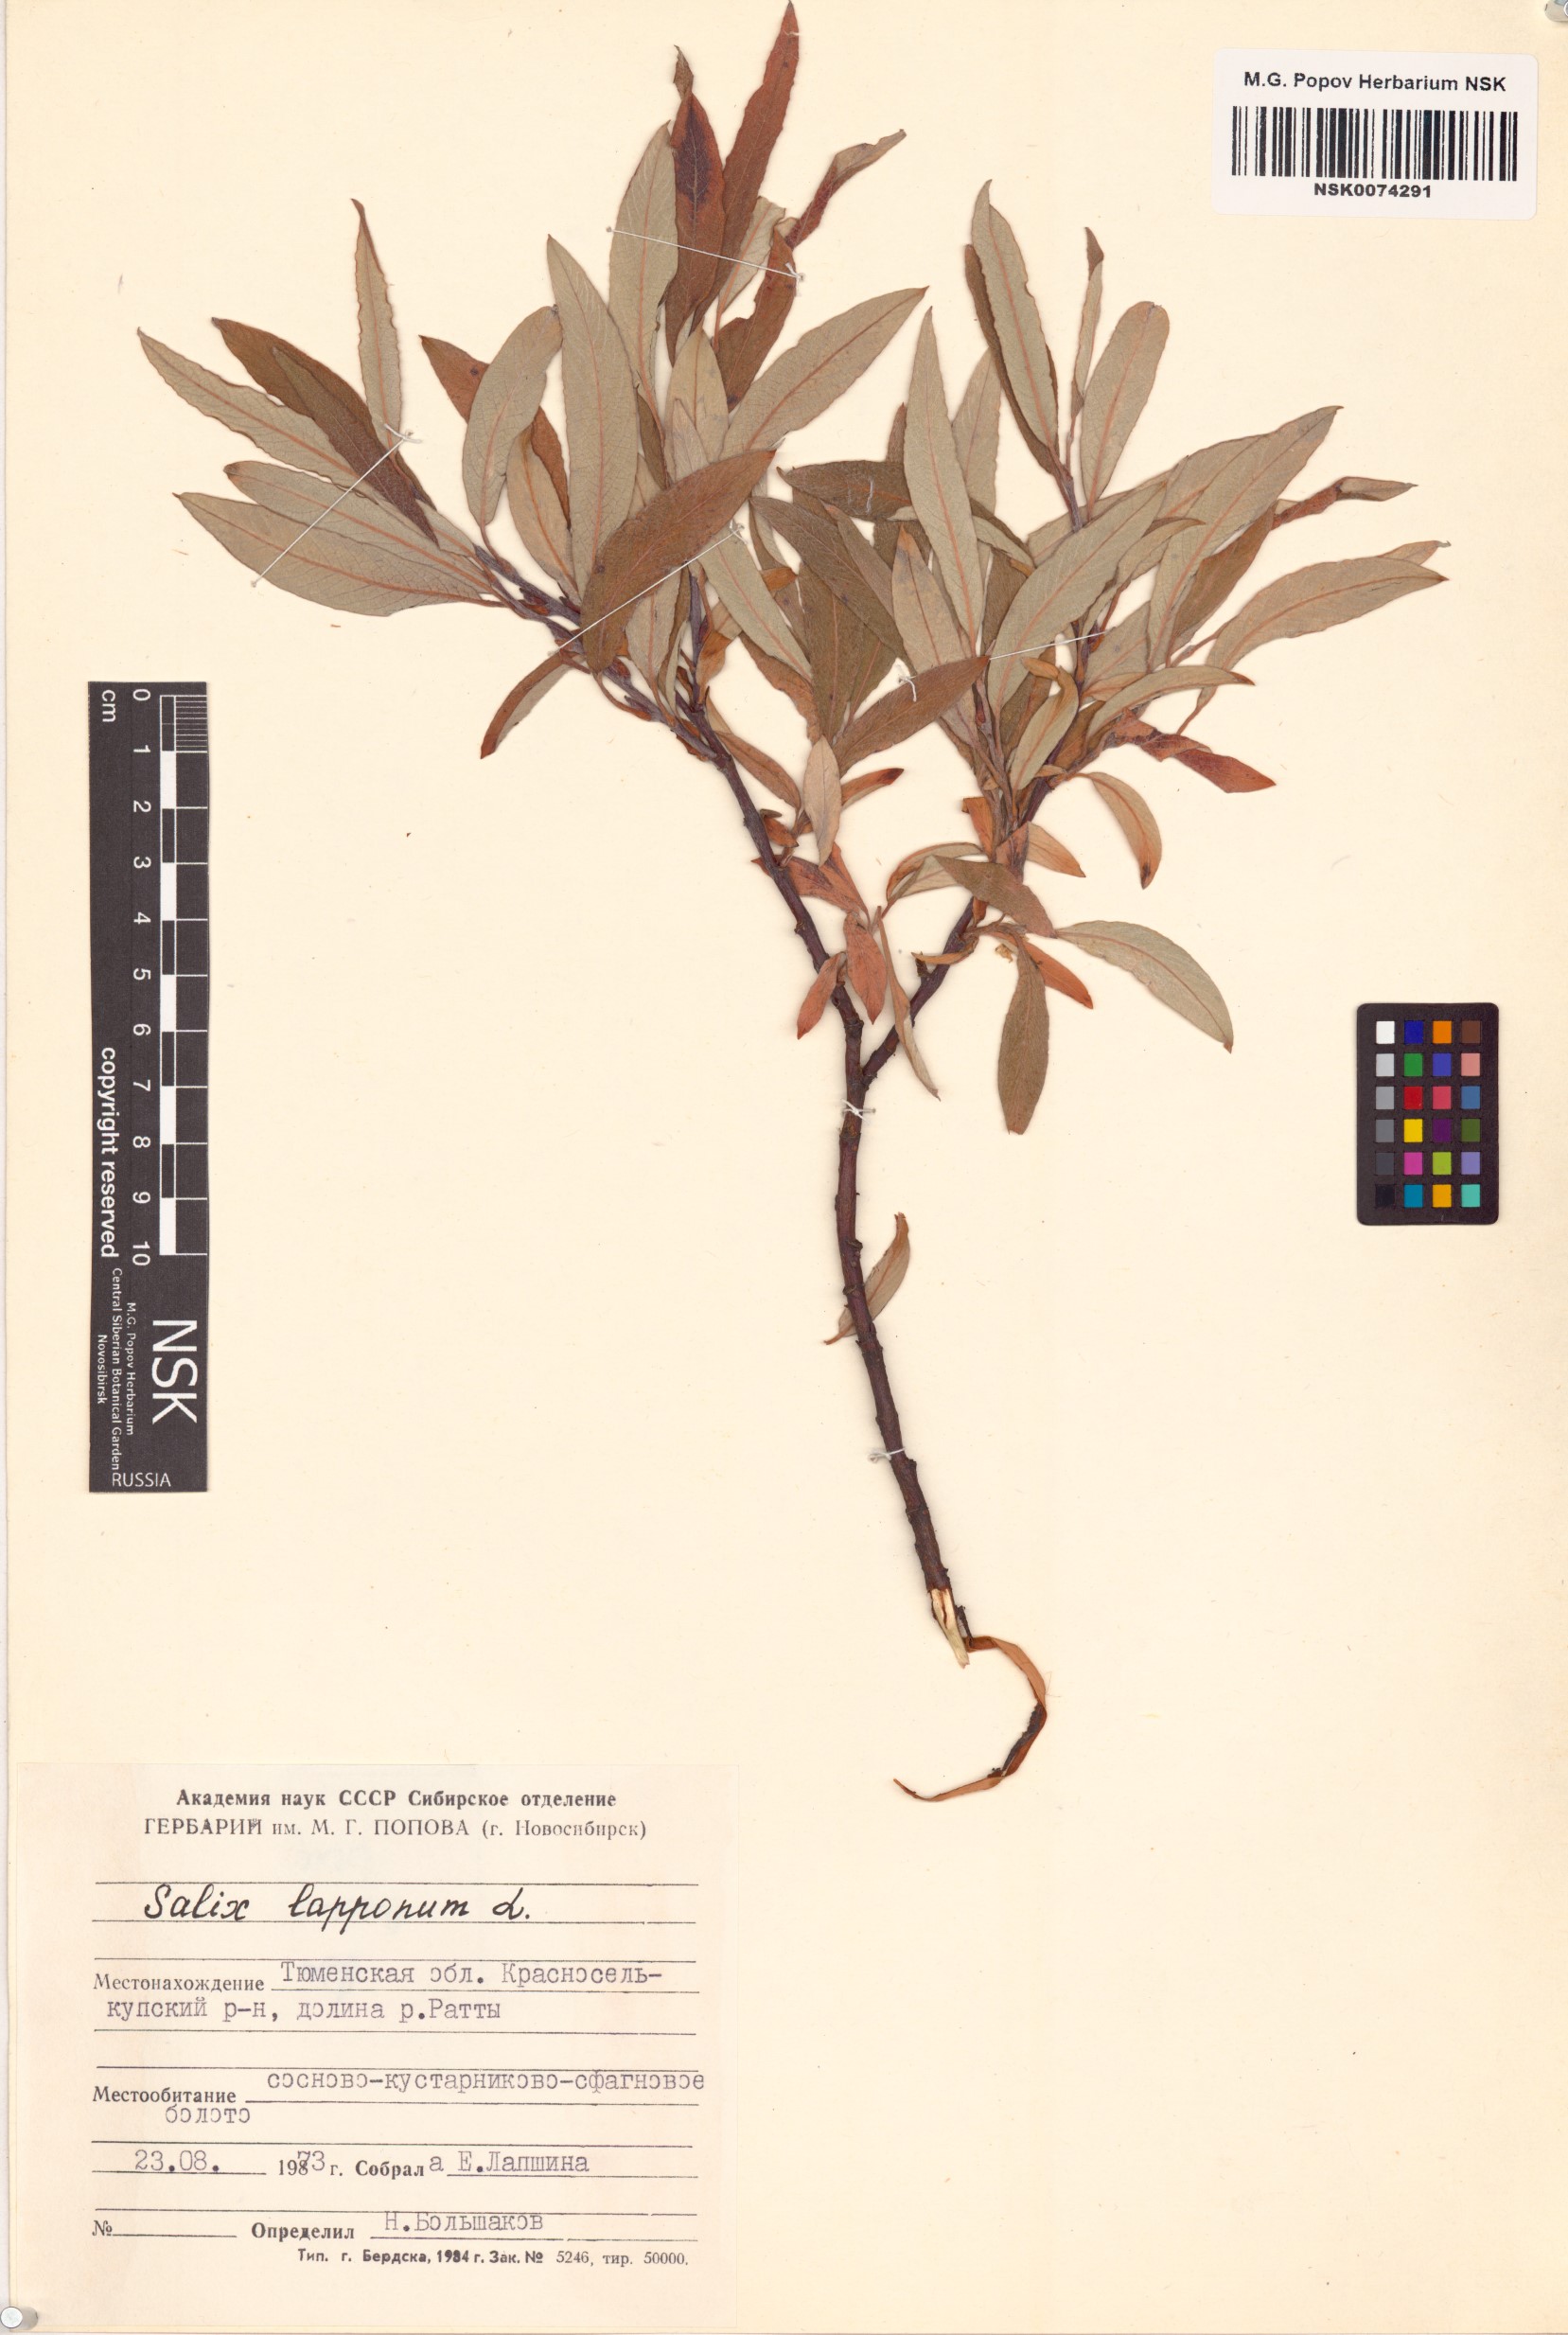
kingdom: Plantae
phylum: Tracheophyta
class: Magnoliopsida
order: Malpighiales
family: Salicaceae
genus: Salix
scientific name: Salix lapponum
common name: Downy willow
